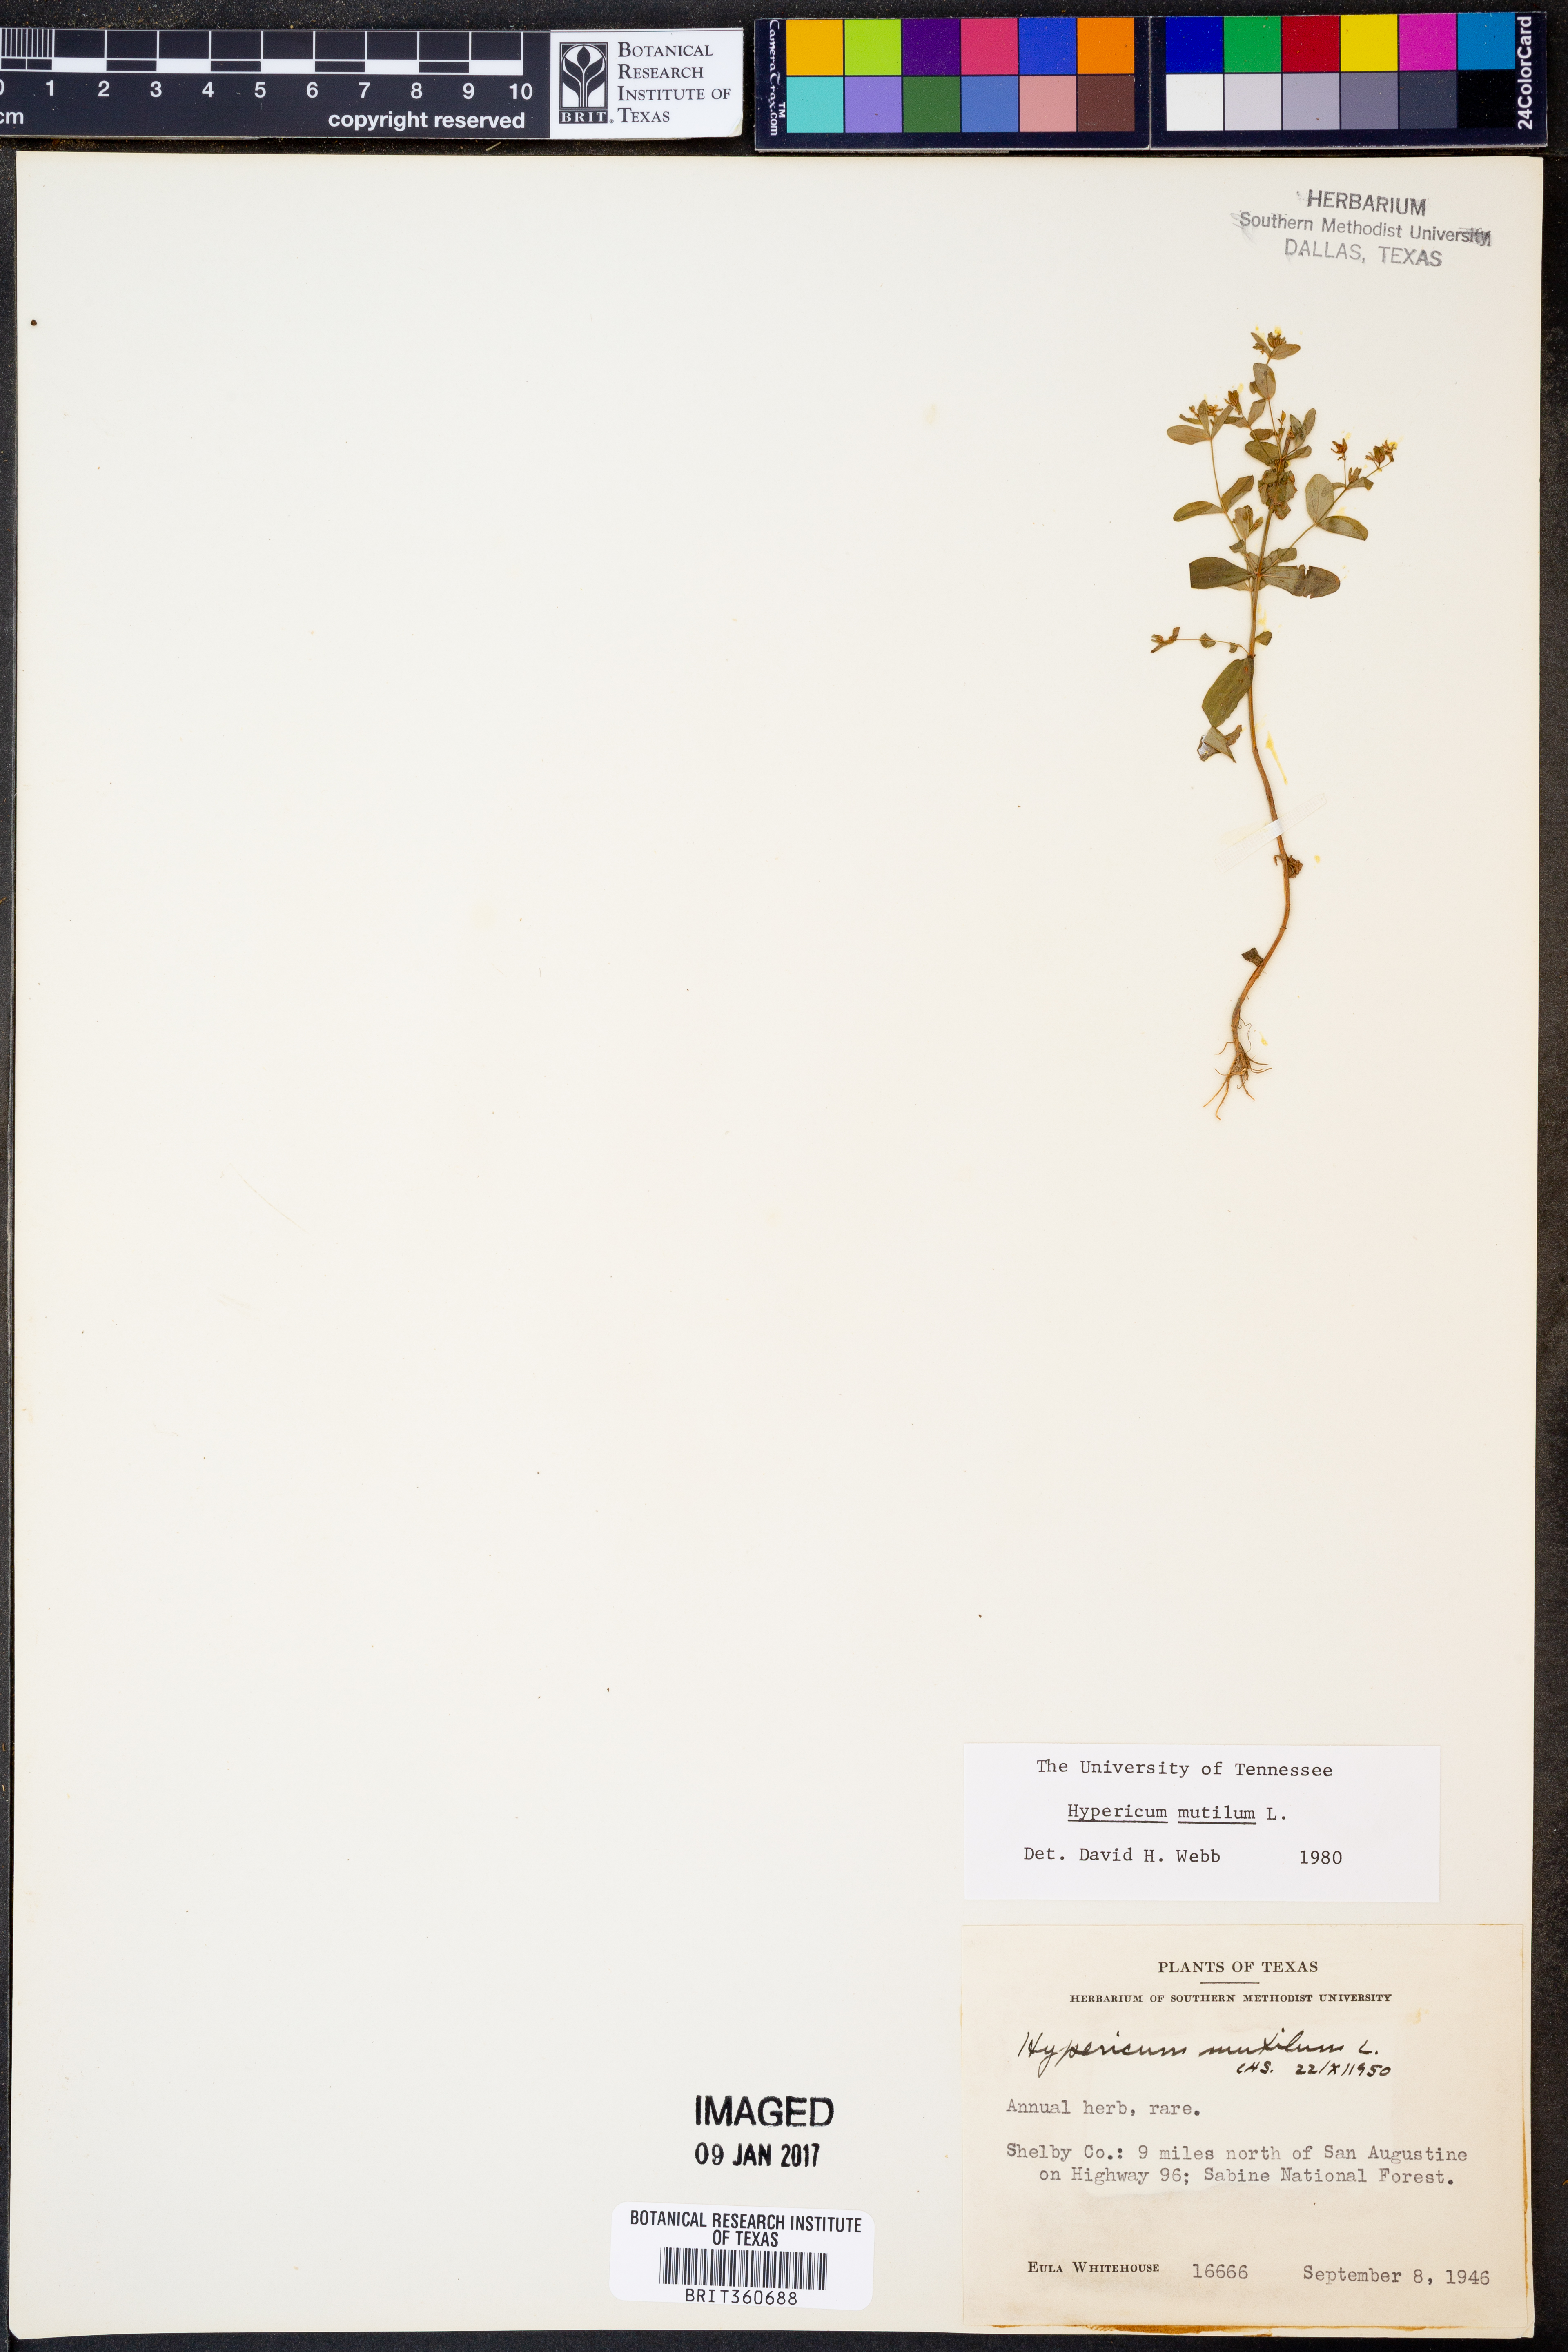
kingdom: Plantae
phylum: Tracheophyta
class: Magnoliopsida
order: Malpighiales
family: Hypericaceae
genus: Hypericum
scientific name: Hypericum mutilum
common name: Dwarf st. john's-wort
